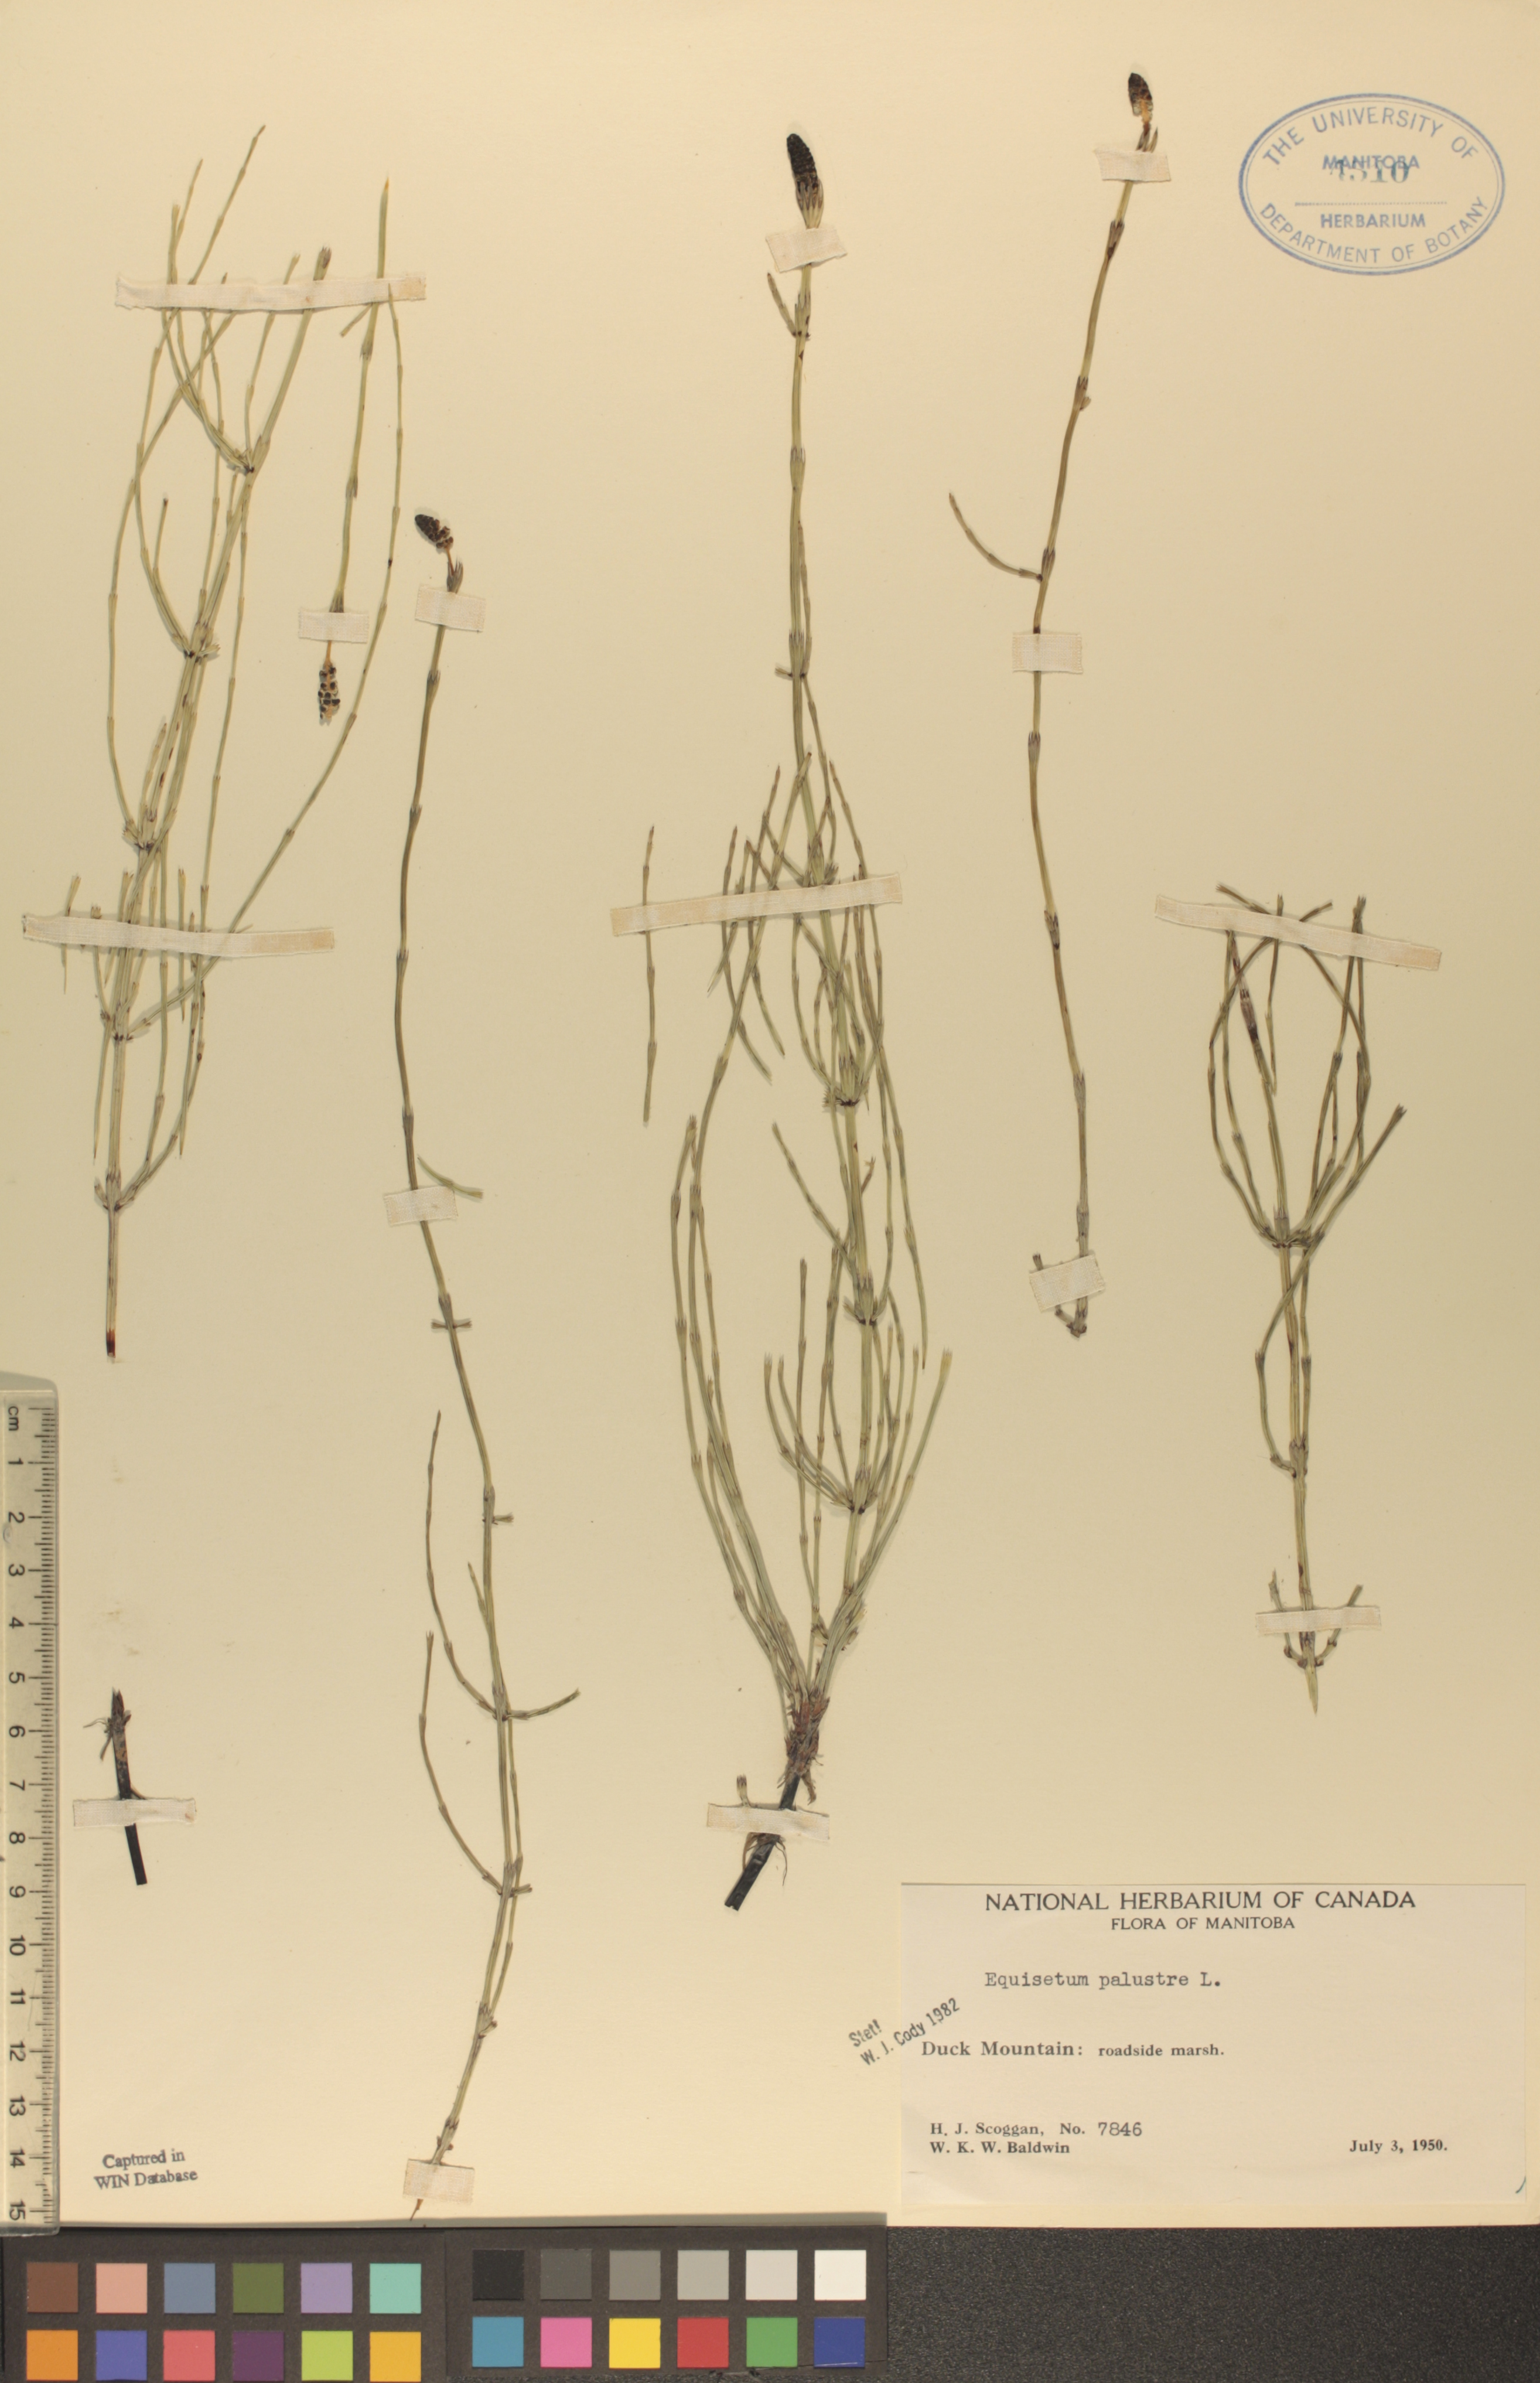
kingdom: Plantae
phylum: Tracheophyta
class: Polypodiopsida
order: Equisetales
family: Equisetaceae
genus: Equisetum
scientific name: Equisetum palustre
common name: Marsh horsetail
